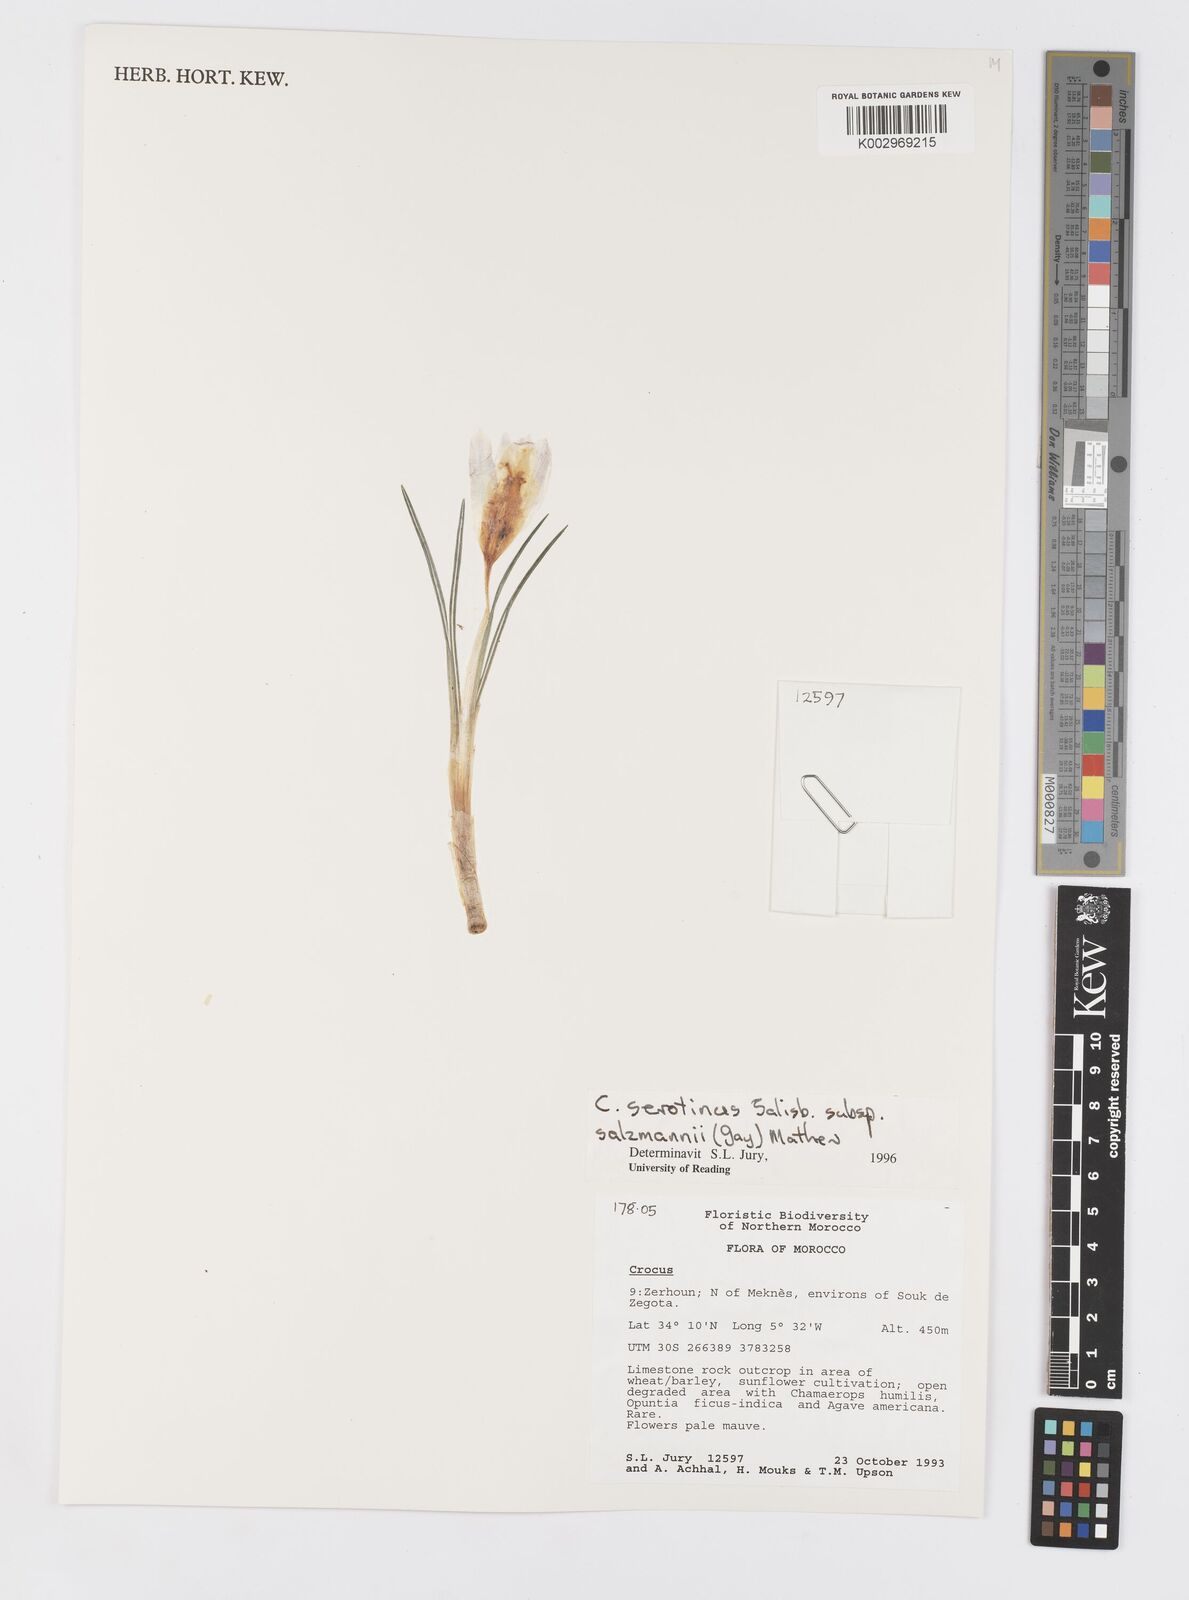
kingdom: Plantae
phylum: Tracheophyta
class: Liliopsida
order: Asparagales
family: Iridaceae
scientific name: Iridaceae
